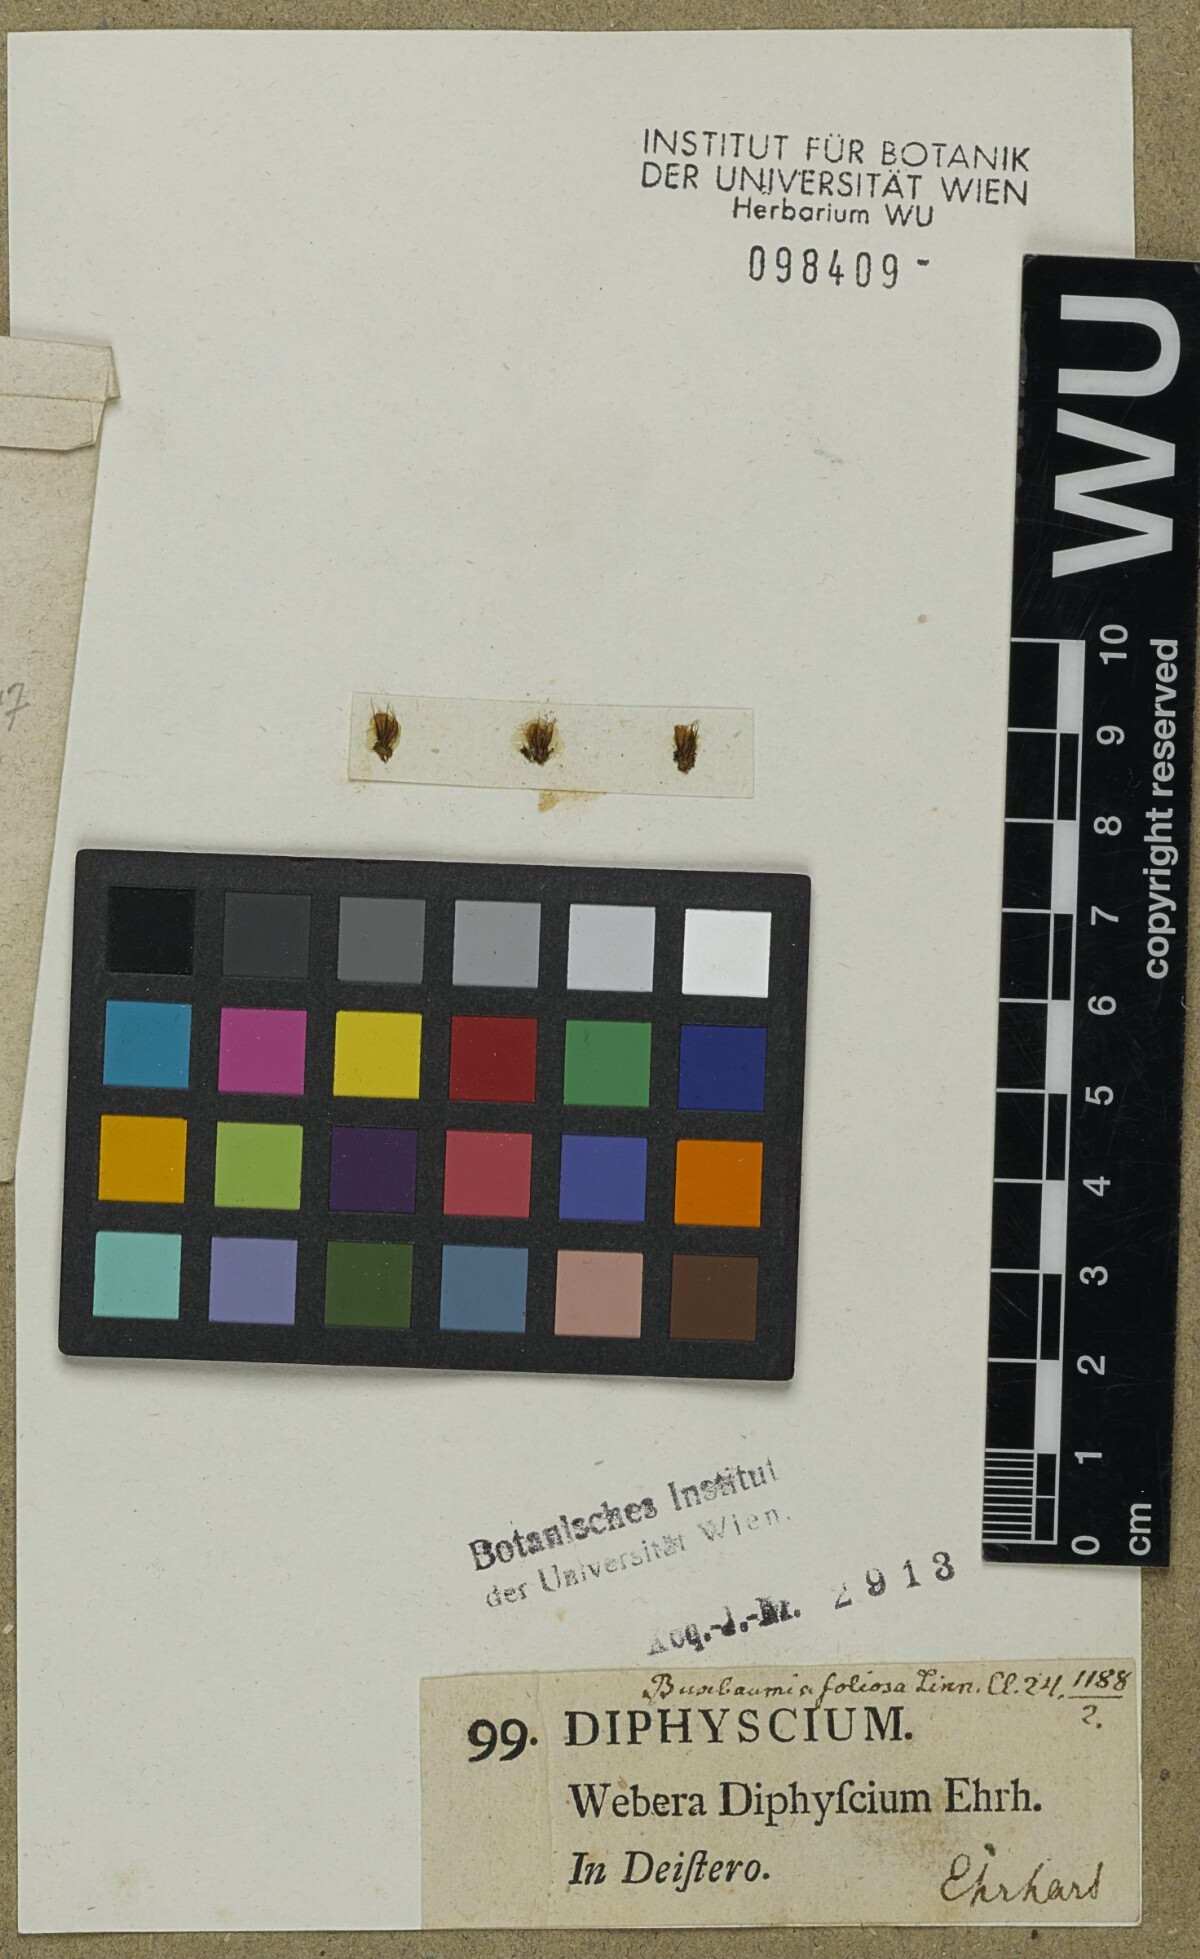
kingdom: Plantae
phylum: Bryophyta
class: Bryopsida
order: Bryales
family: Bryaceae
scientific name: Bryaceae
